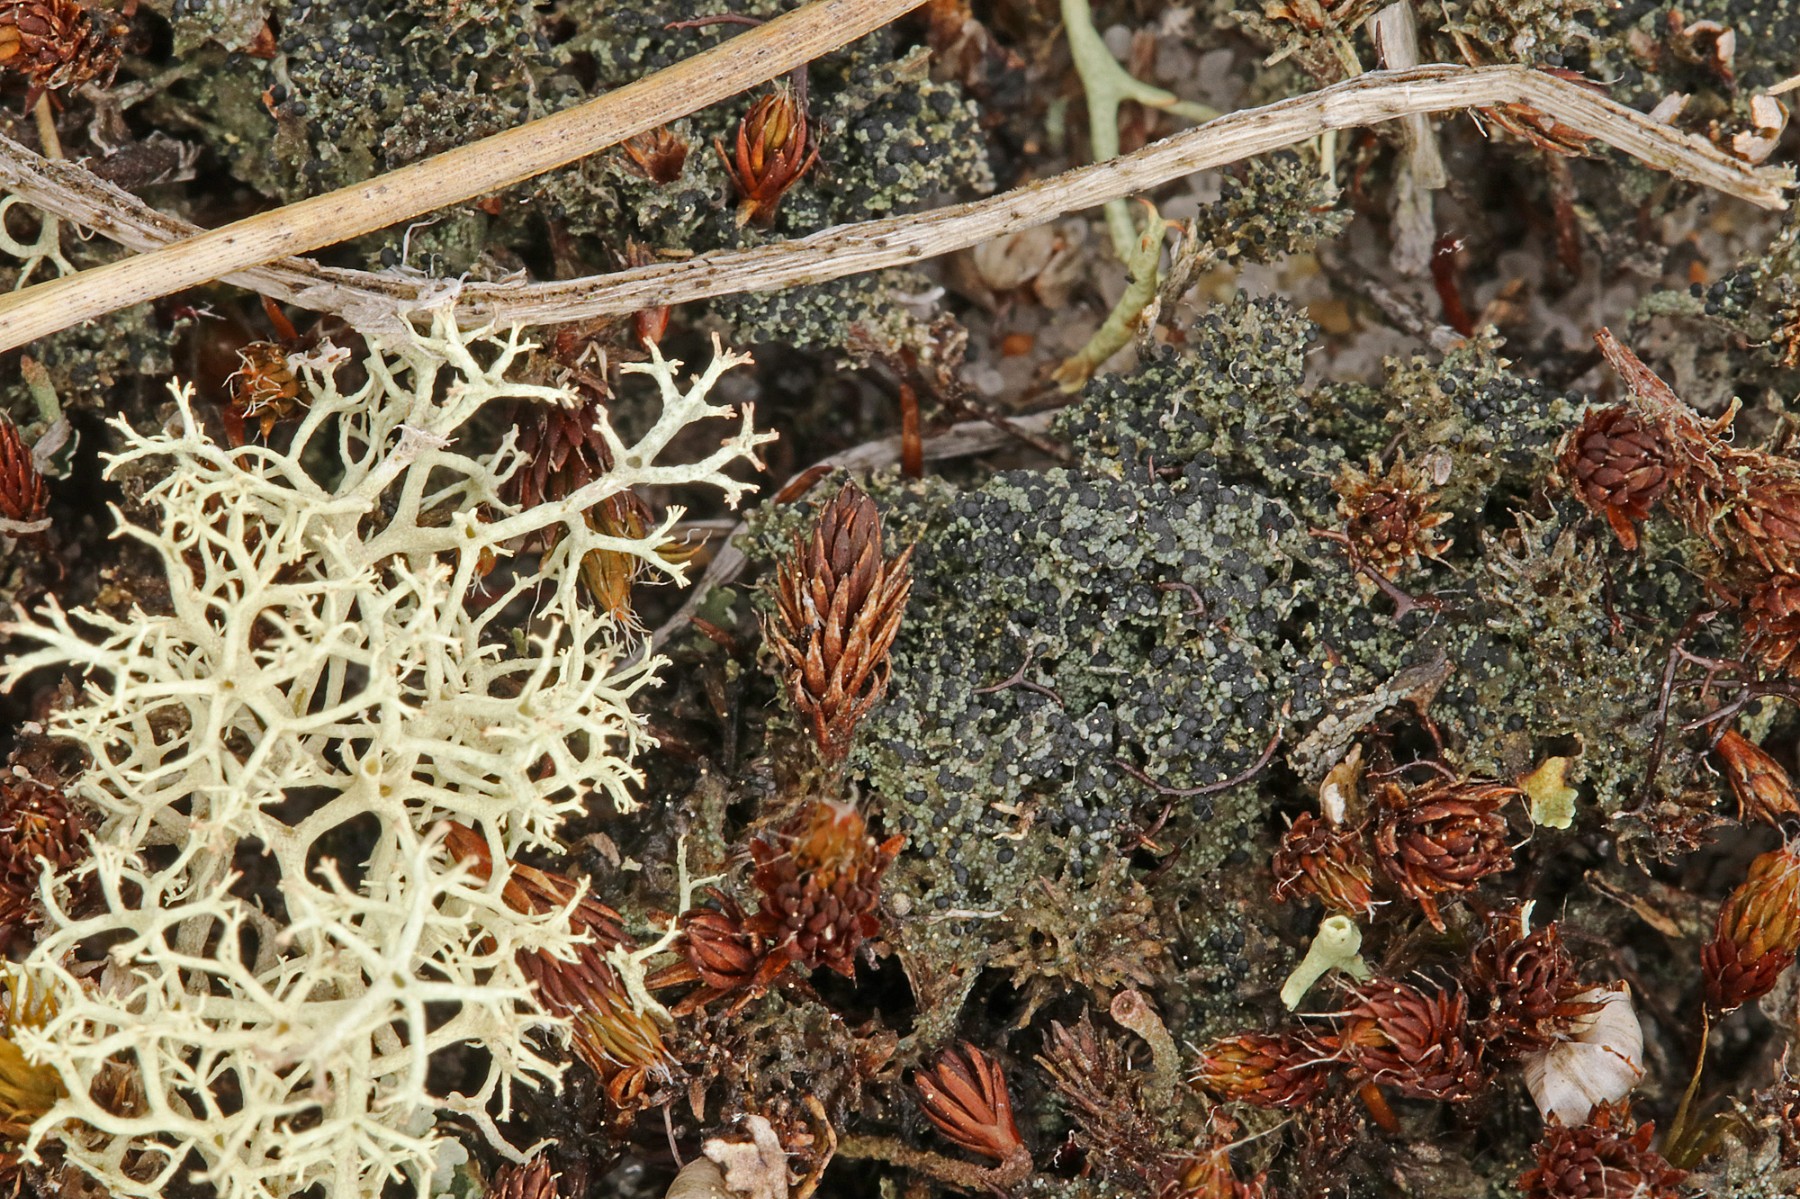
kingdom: Fungi
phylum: Ascomycota
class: Lecanoromycetes
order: Lecanorales
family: Byssolomataceae
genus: Micarea
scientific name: Micarea lignaria
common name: tørve-knaplav
